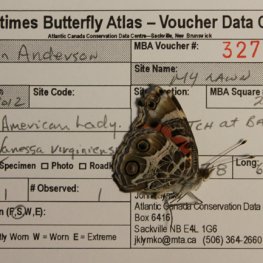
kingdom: Animalia
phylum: Arthropoda
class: Insecta
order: Lepidoptera
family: Nymphalidae
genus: Vanessa
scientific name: Vanessa virginiensis
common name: American Lady
